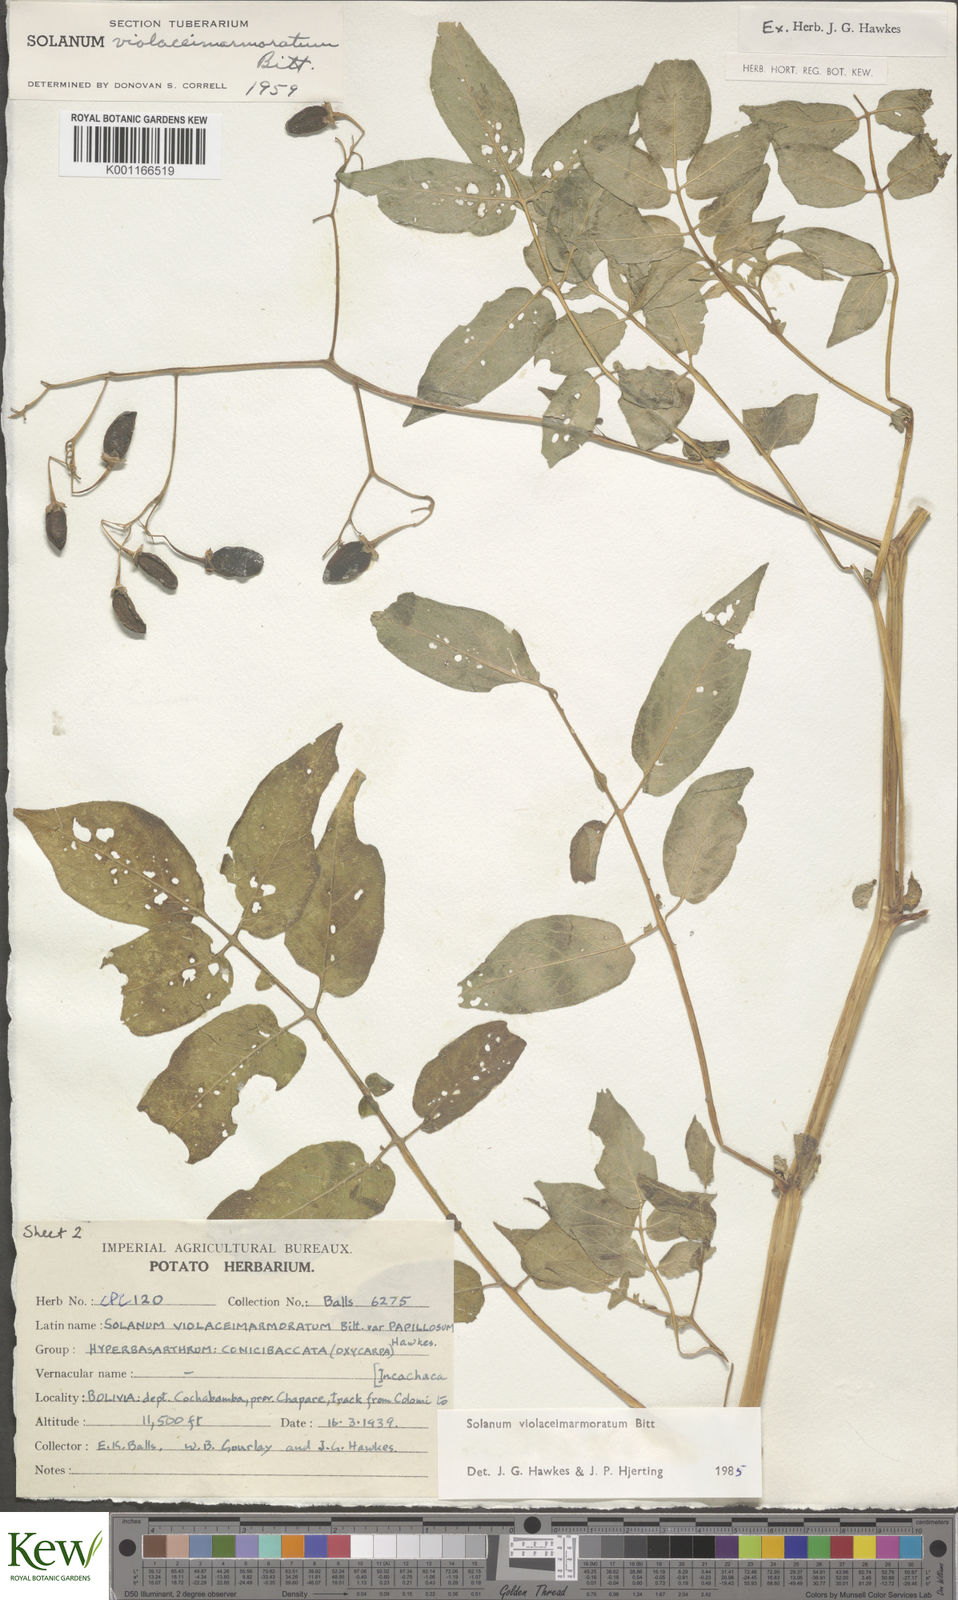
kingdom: Plantae
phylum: Tracheophyta
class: Magnoliopsida
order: Solanales
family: Solanaceae
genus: Solanum
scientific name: Solanum violaceimarmoratum
